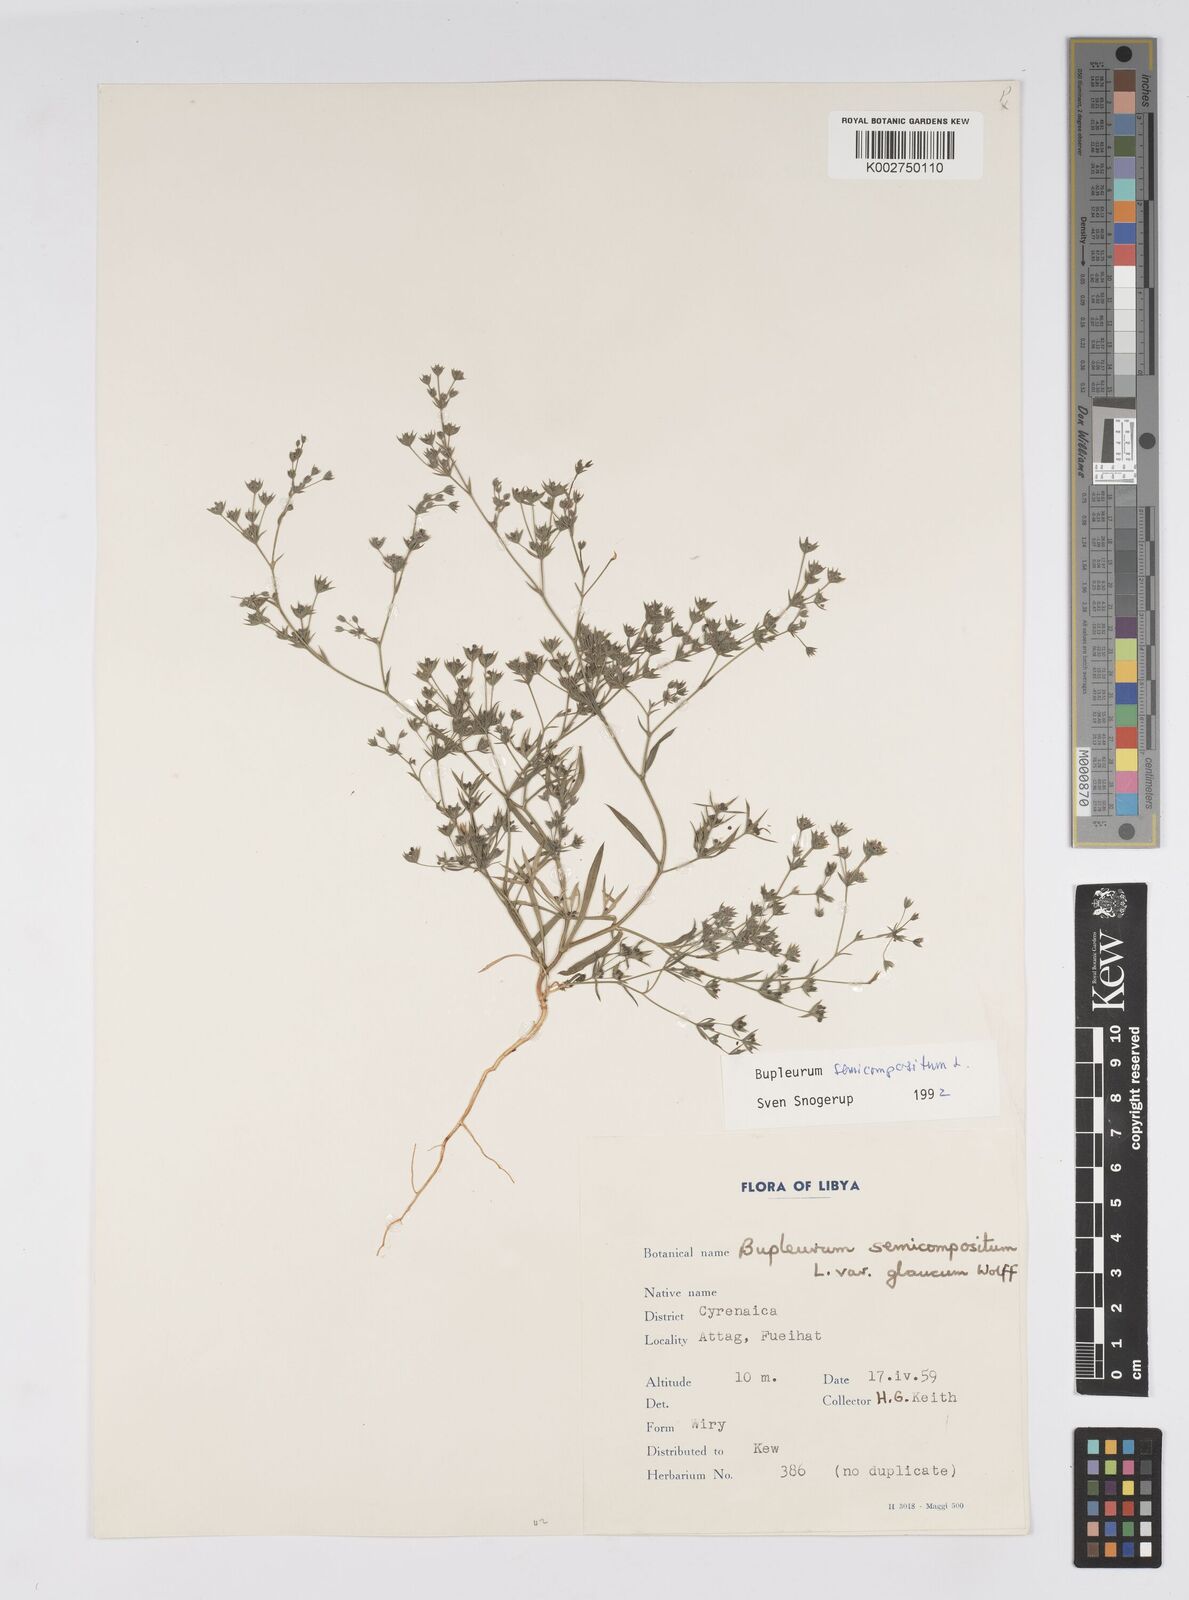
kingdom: Plantae
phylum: Tracheophyta
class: Magnoliopsida
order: Apiales
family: Apiaceae
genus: Bupleurum
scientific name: Bupleurum semicompositum
